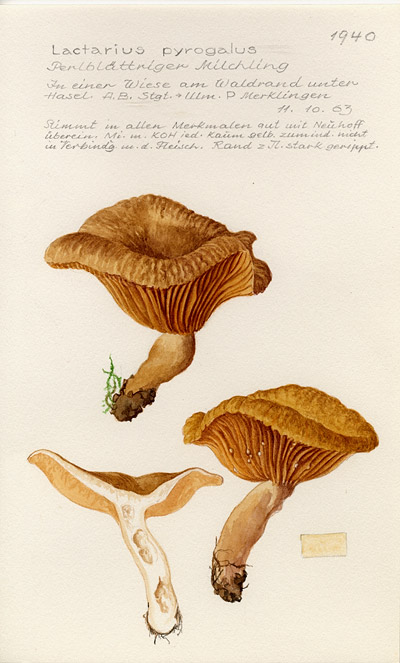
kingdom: Fungi
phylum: Basidiomycota
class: Agaricomycetes
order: Russulales
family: Russulaceae
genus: Lactarius
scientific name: Lactarius pyrogalus
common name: Fiery milkcap
